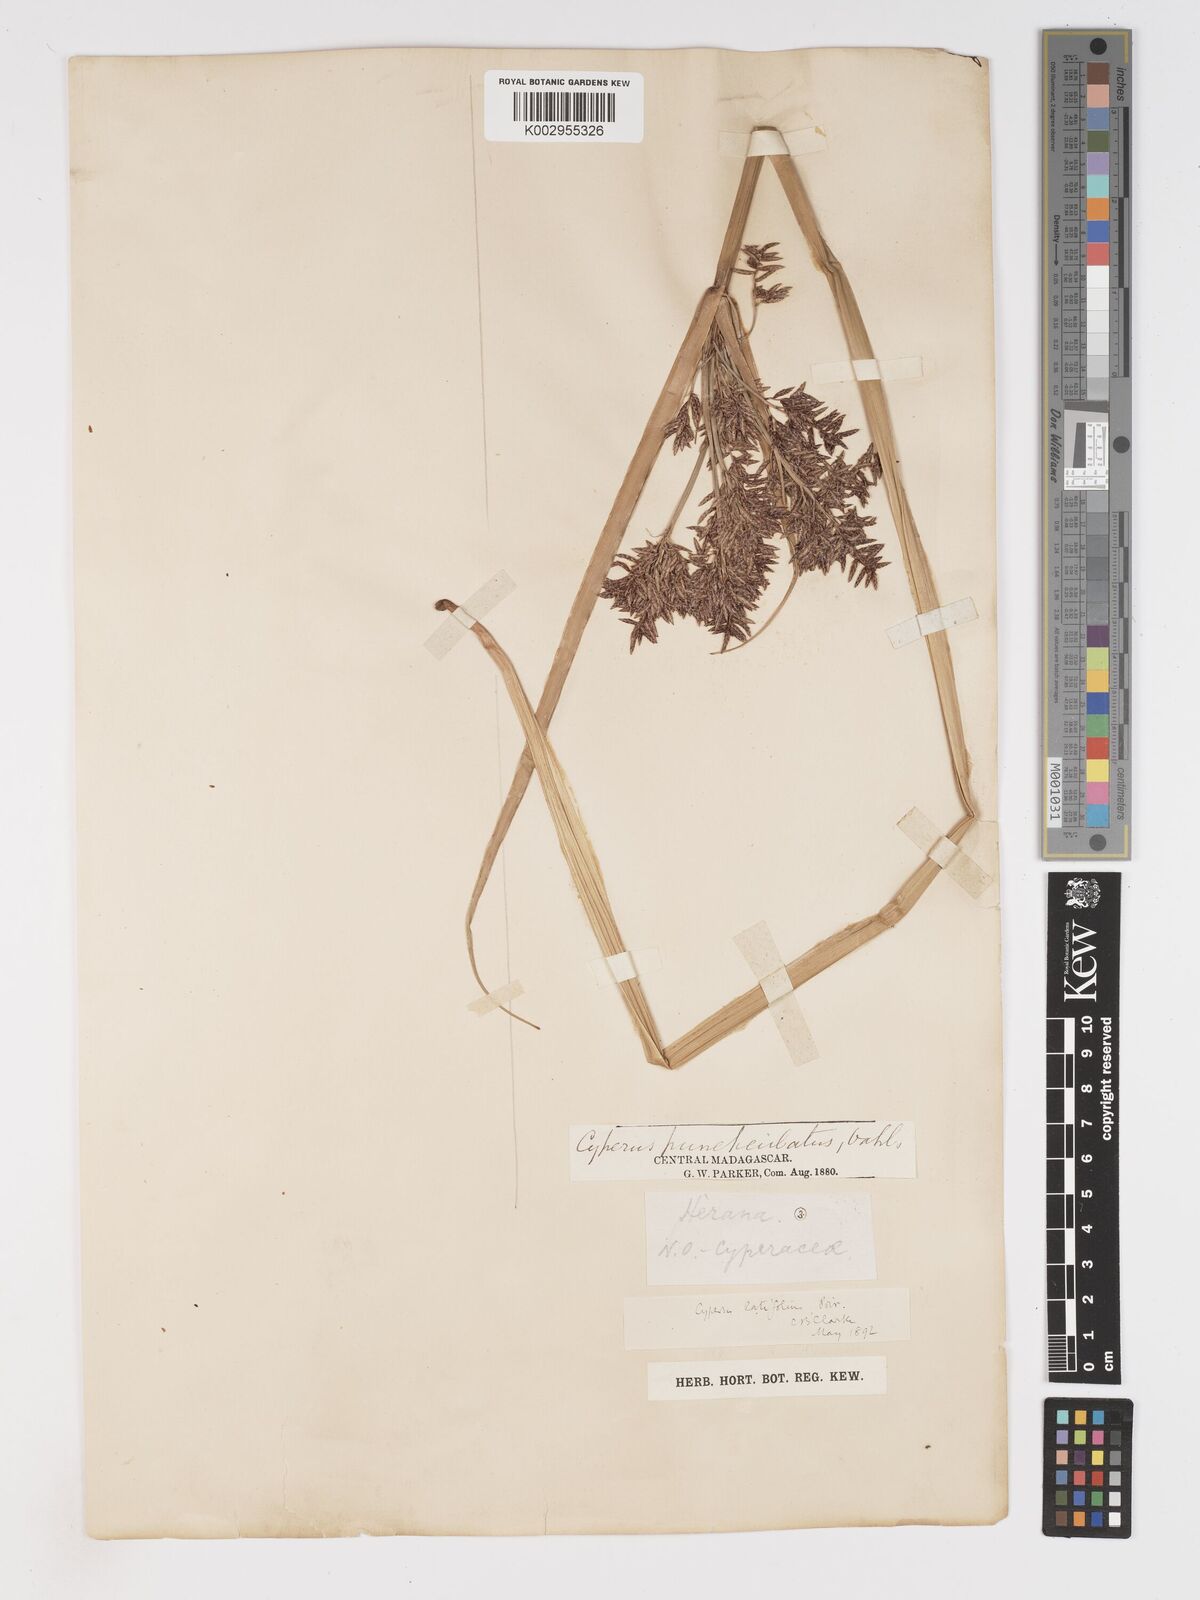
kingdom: Plantae
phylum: Tracheophyta
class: Liliopsida
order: Poales
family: Cyperaceae
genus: Cyperus
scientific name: Cyperus latifolius
